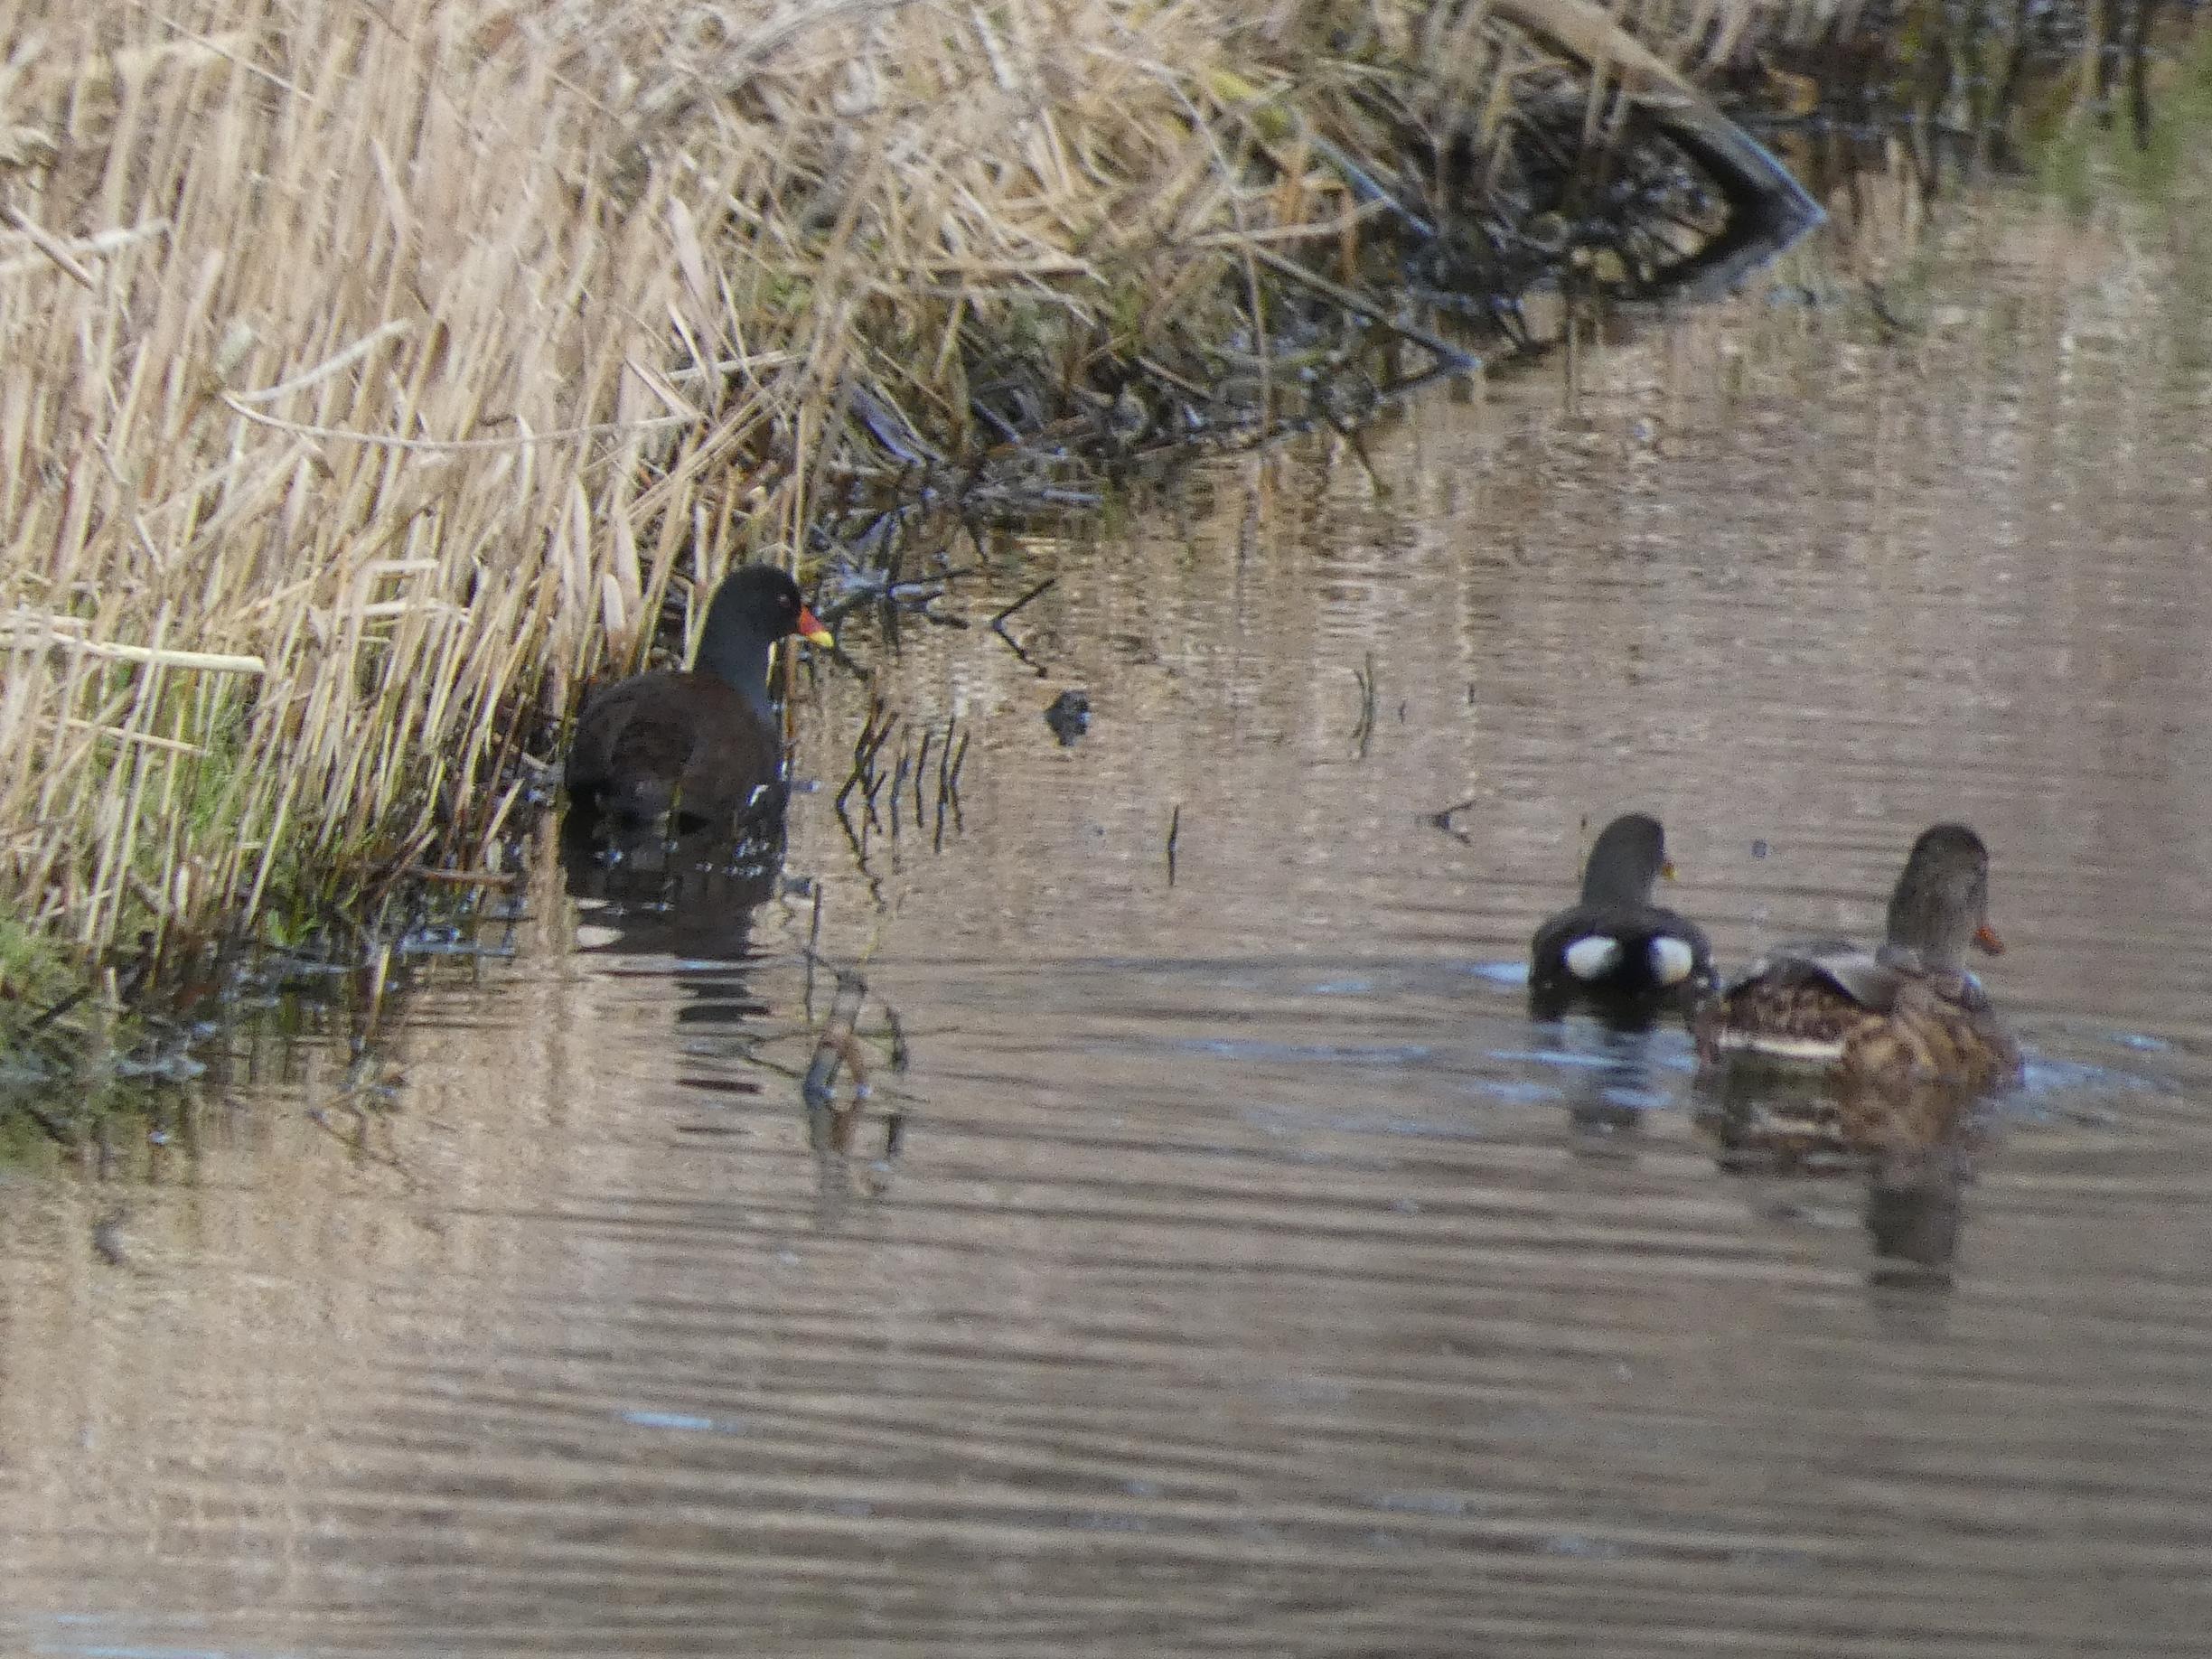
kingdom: Animalia
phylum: Chordata
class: Aves
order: Gruiformes
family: Rallidae
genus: Gallinula
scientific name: Gallinula chloropus
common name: Grønbenet rørhøne
